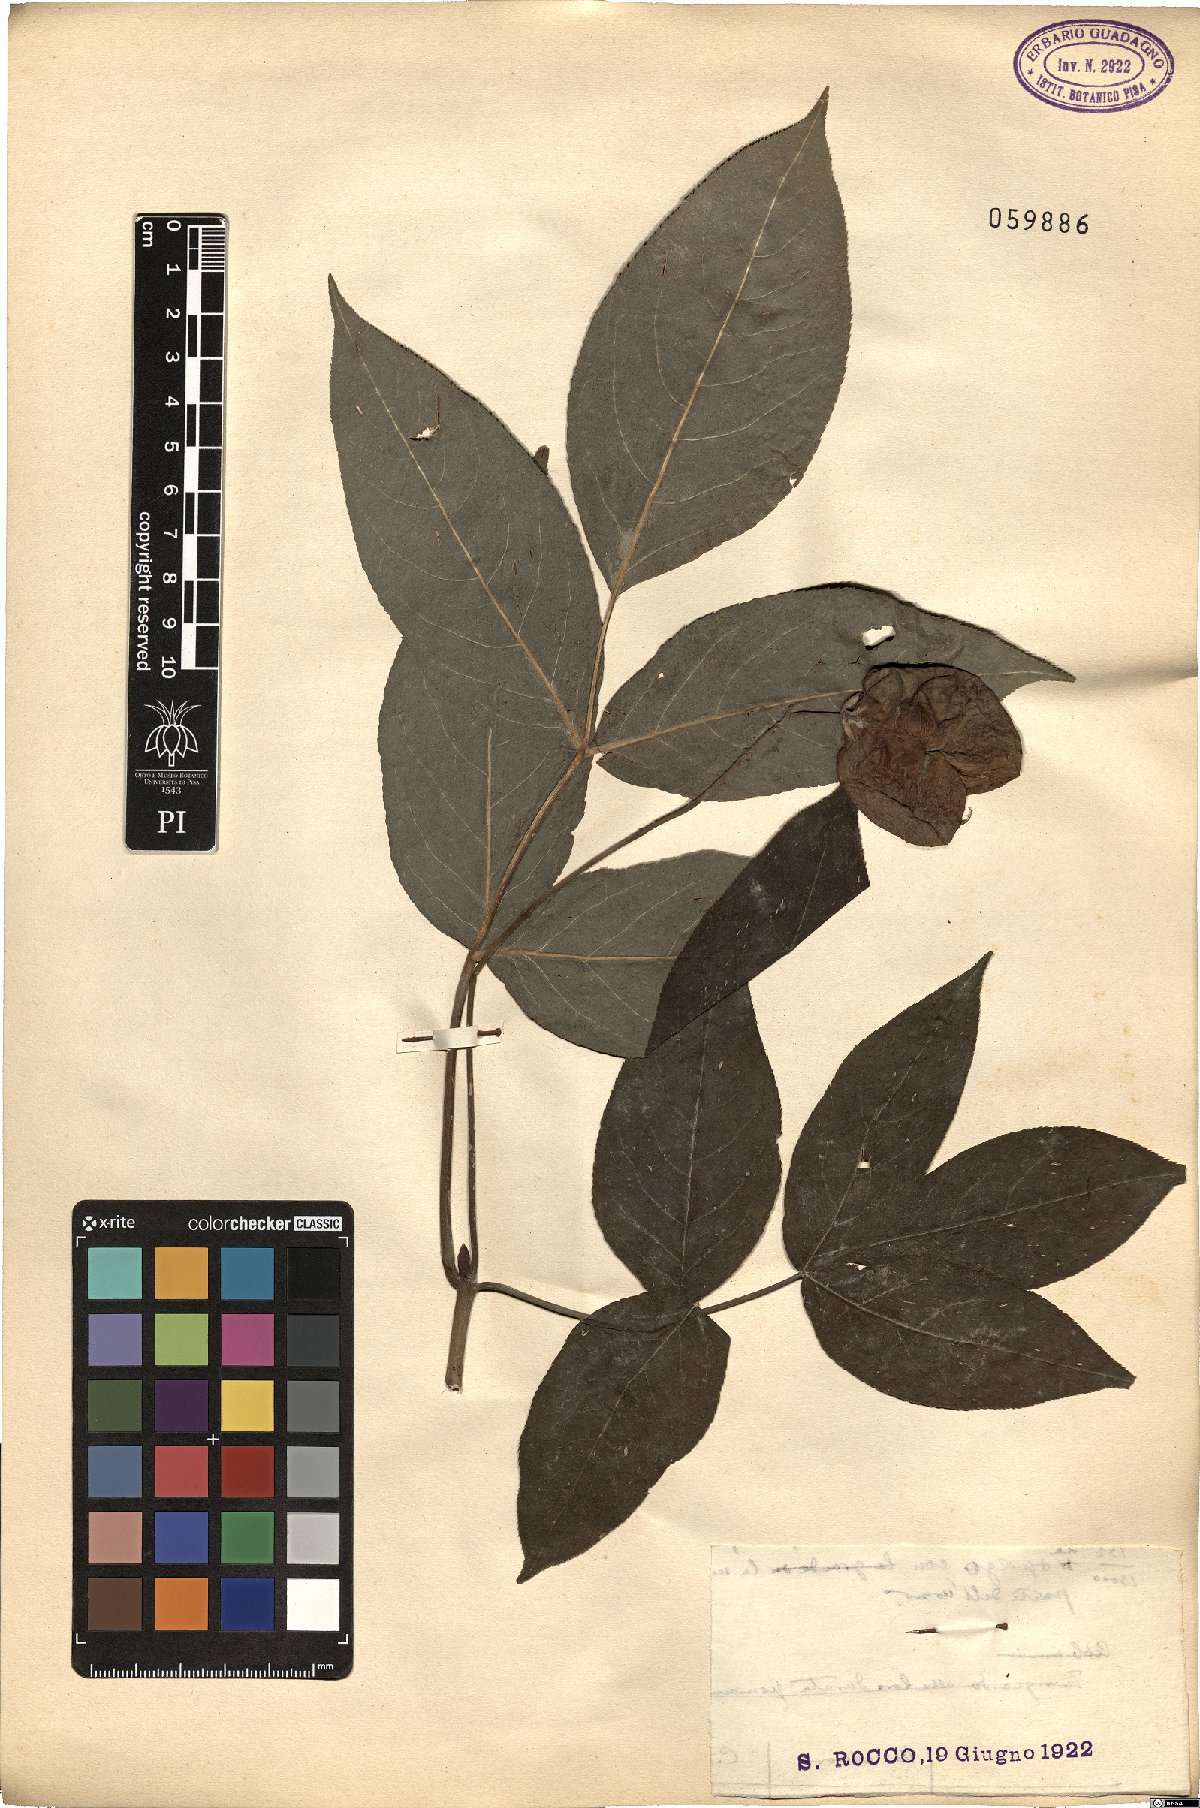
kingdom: Plantae
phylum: Tracheophyta
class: Magnoliopsida
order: Crossosomatales
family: Staphyleaceae
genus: Staphylea
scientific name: Staphylea pinnata
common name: Bladdernut
